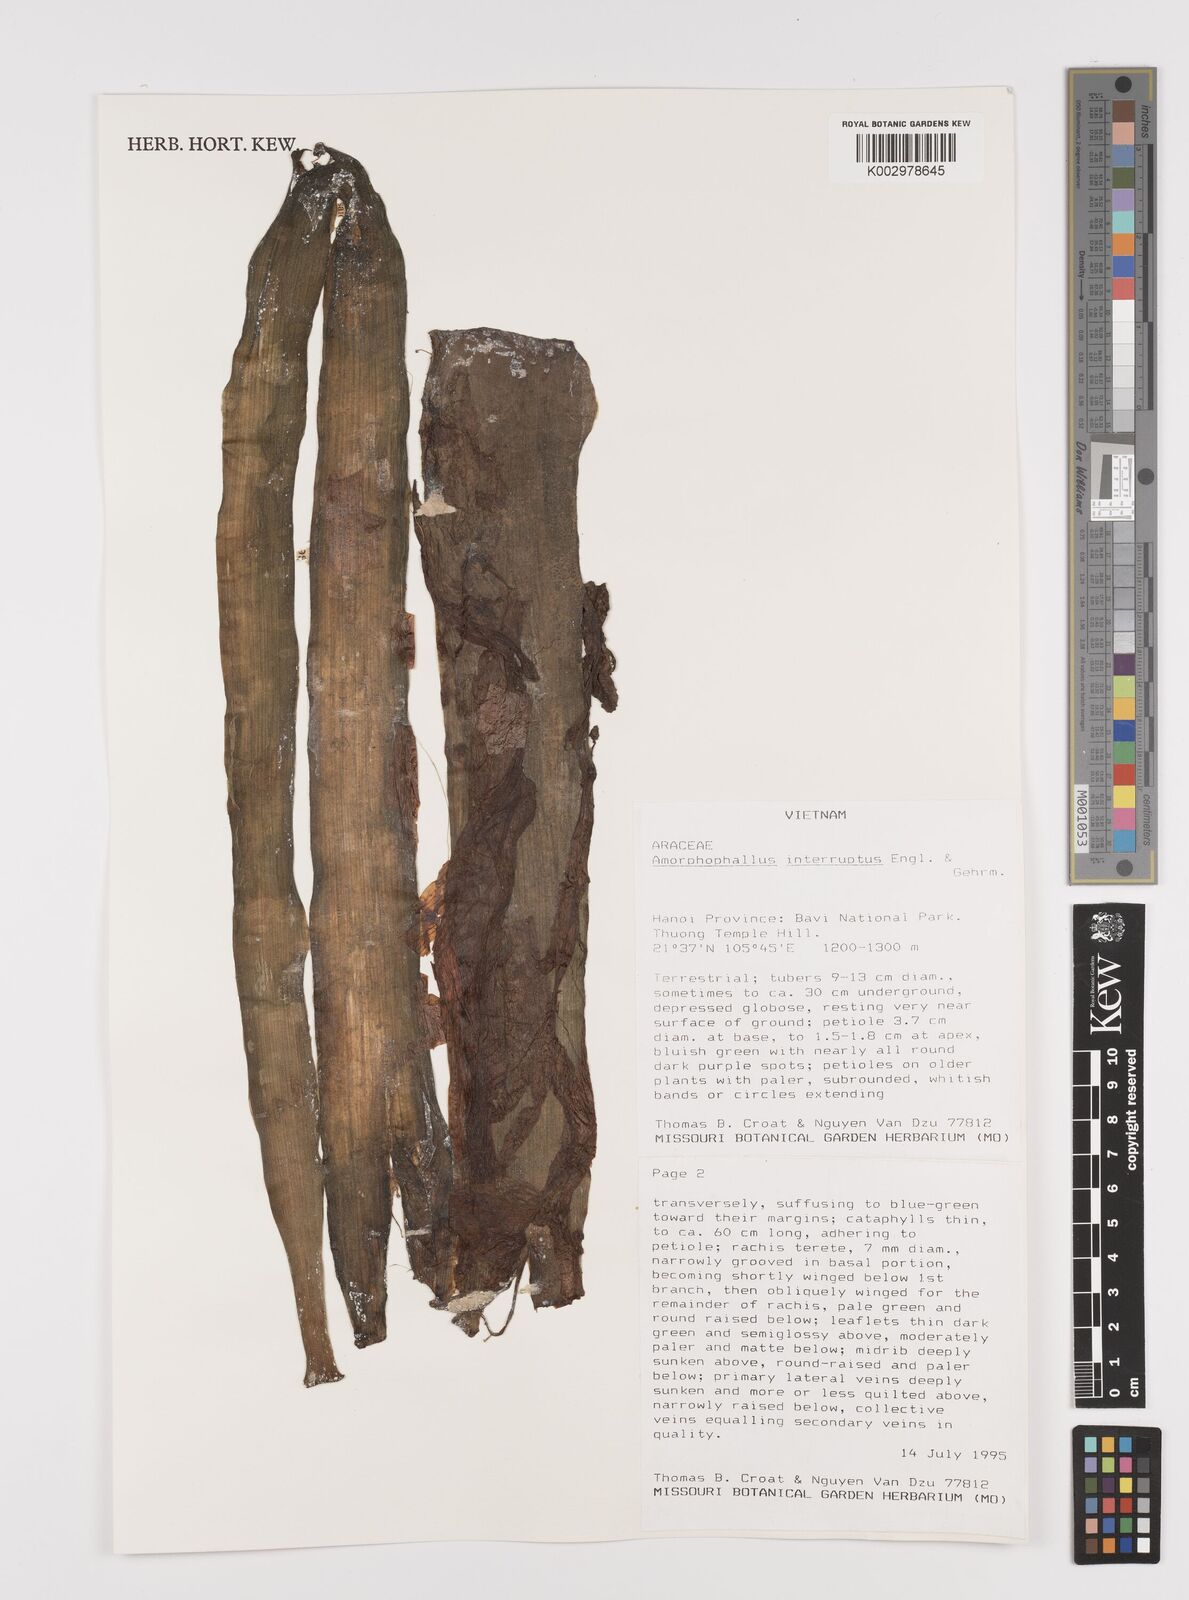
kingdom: Plantae
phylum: Tracheophyta
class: Liliopsida
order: Alismatales
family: Araceae
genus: Amorphophallus
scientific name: Amorphophallus interruptus
